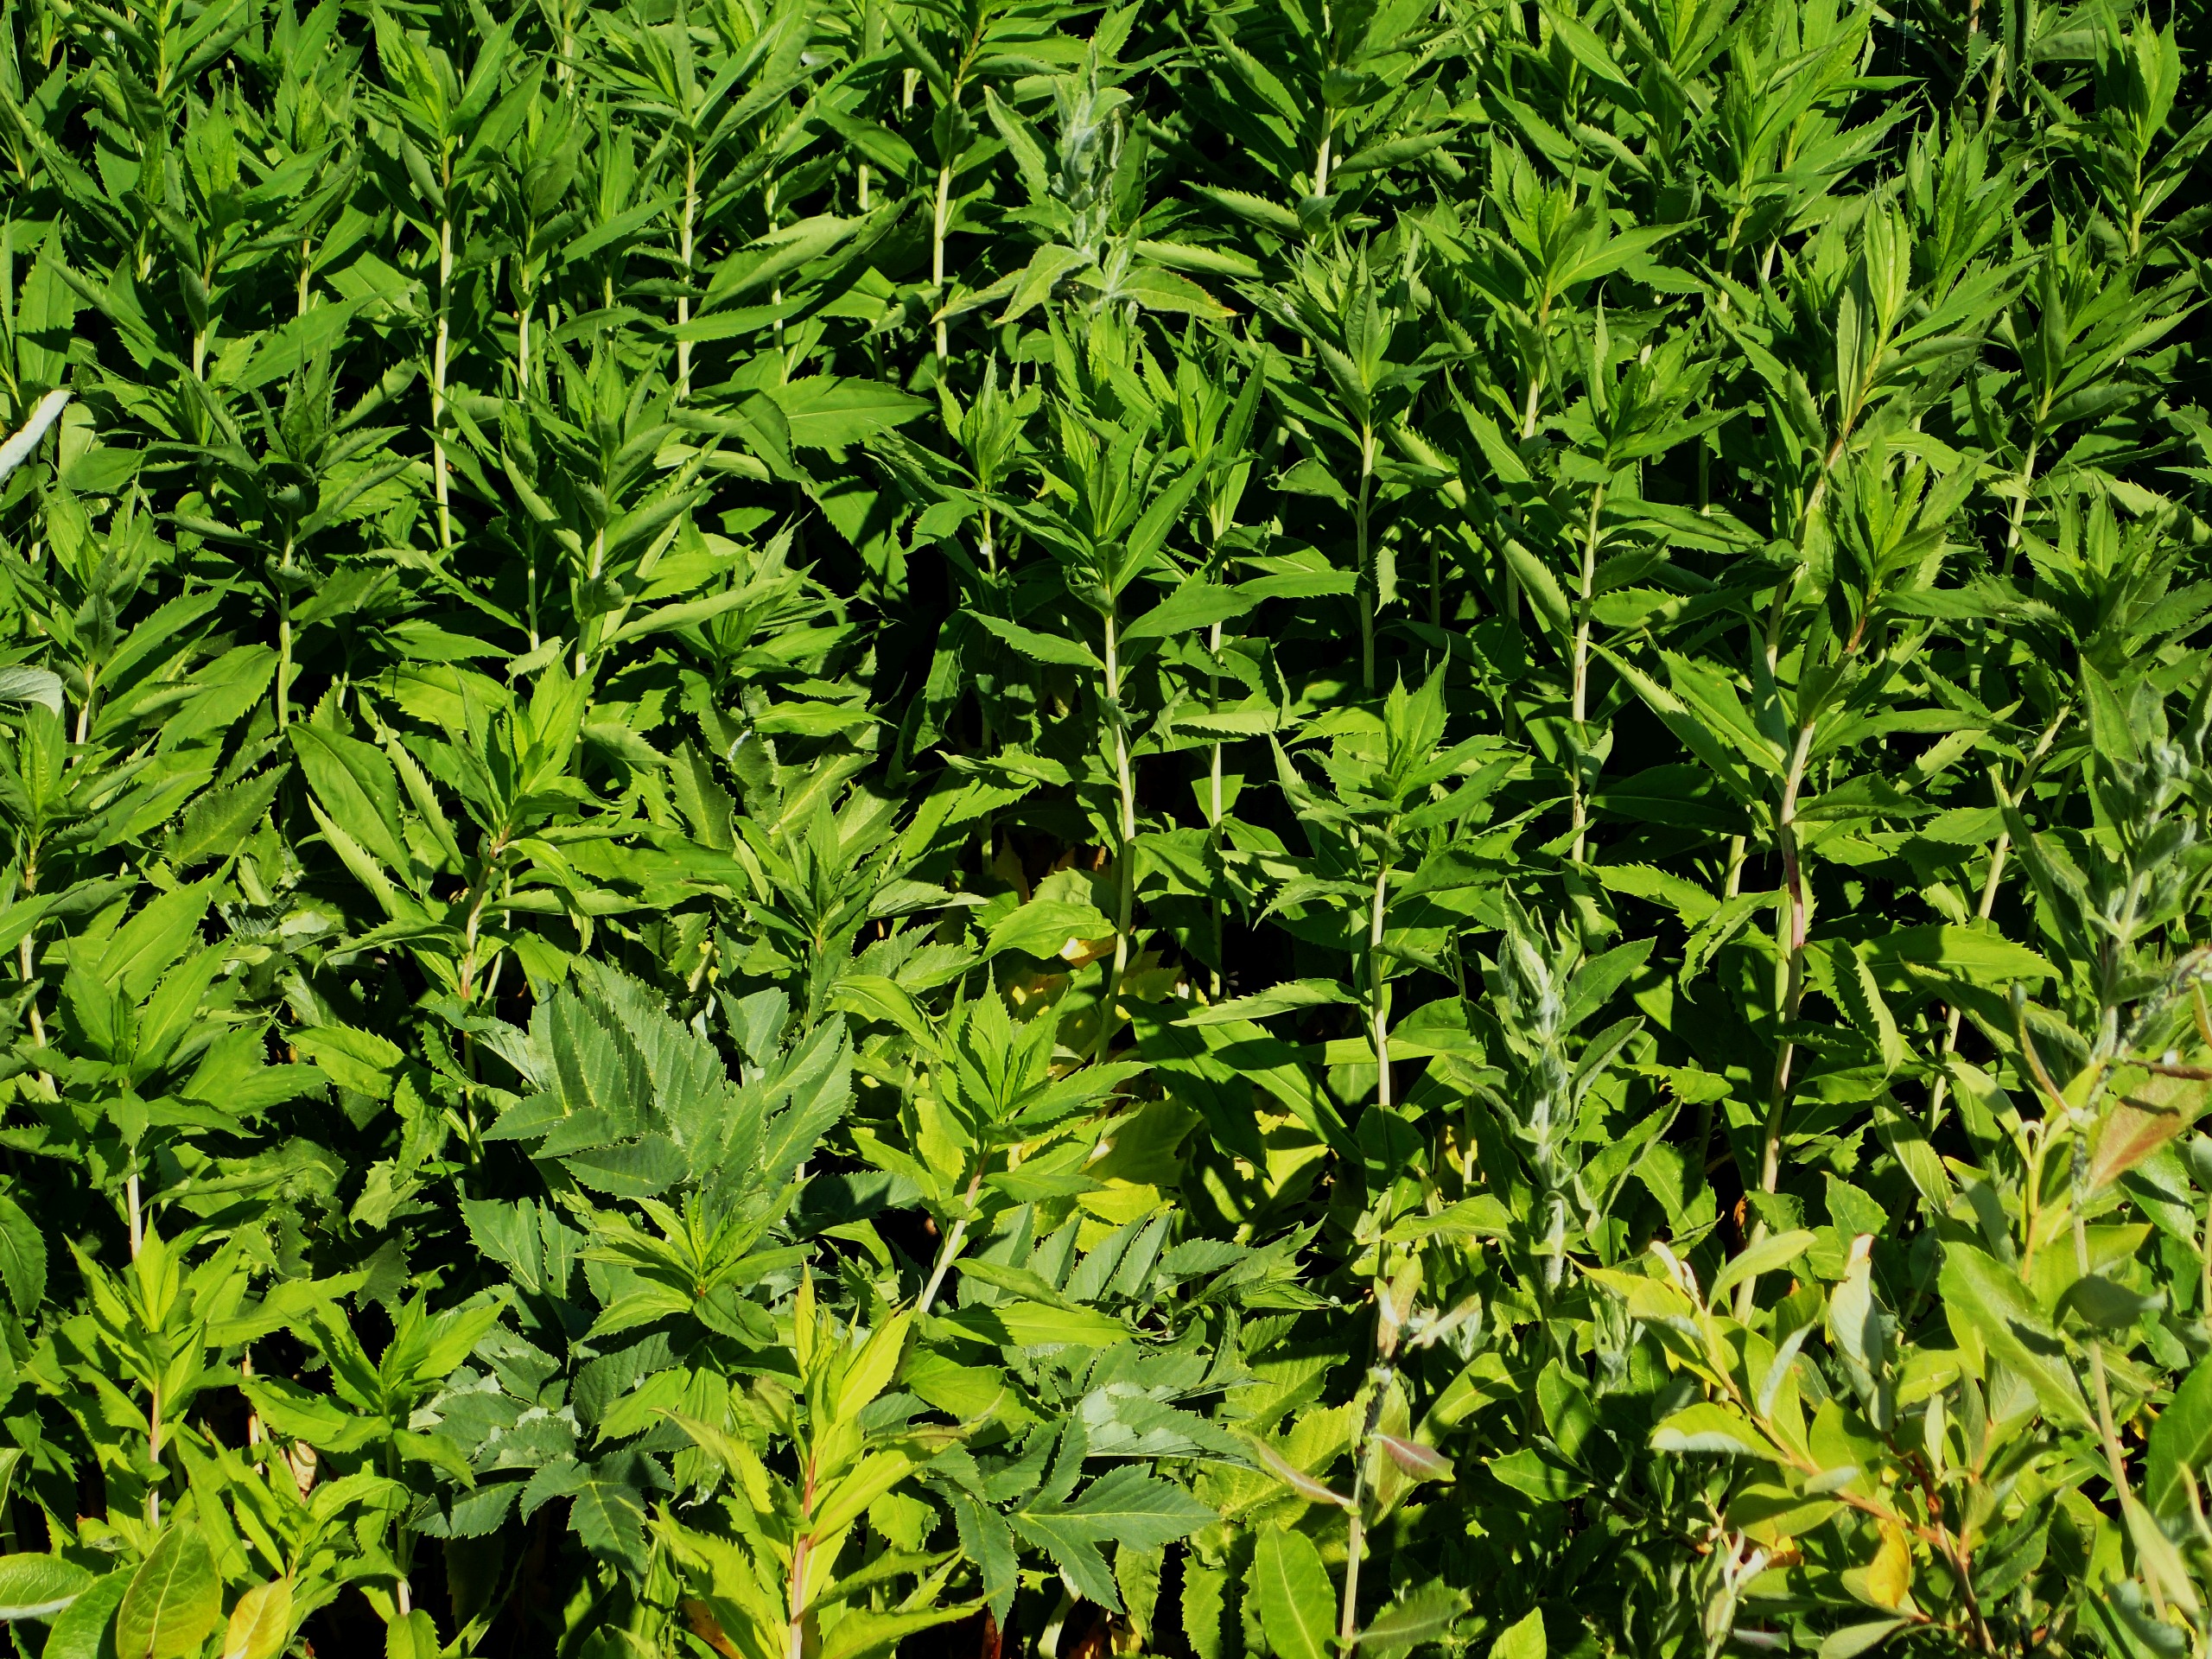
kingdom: Plantae
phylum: Tracheophyta
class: Magnoliopsida
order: Asterales
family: Asteraceae
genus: Eupatorium
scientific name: Eupatorium cannabinum
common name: Hjortetrøst
